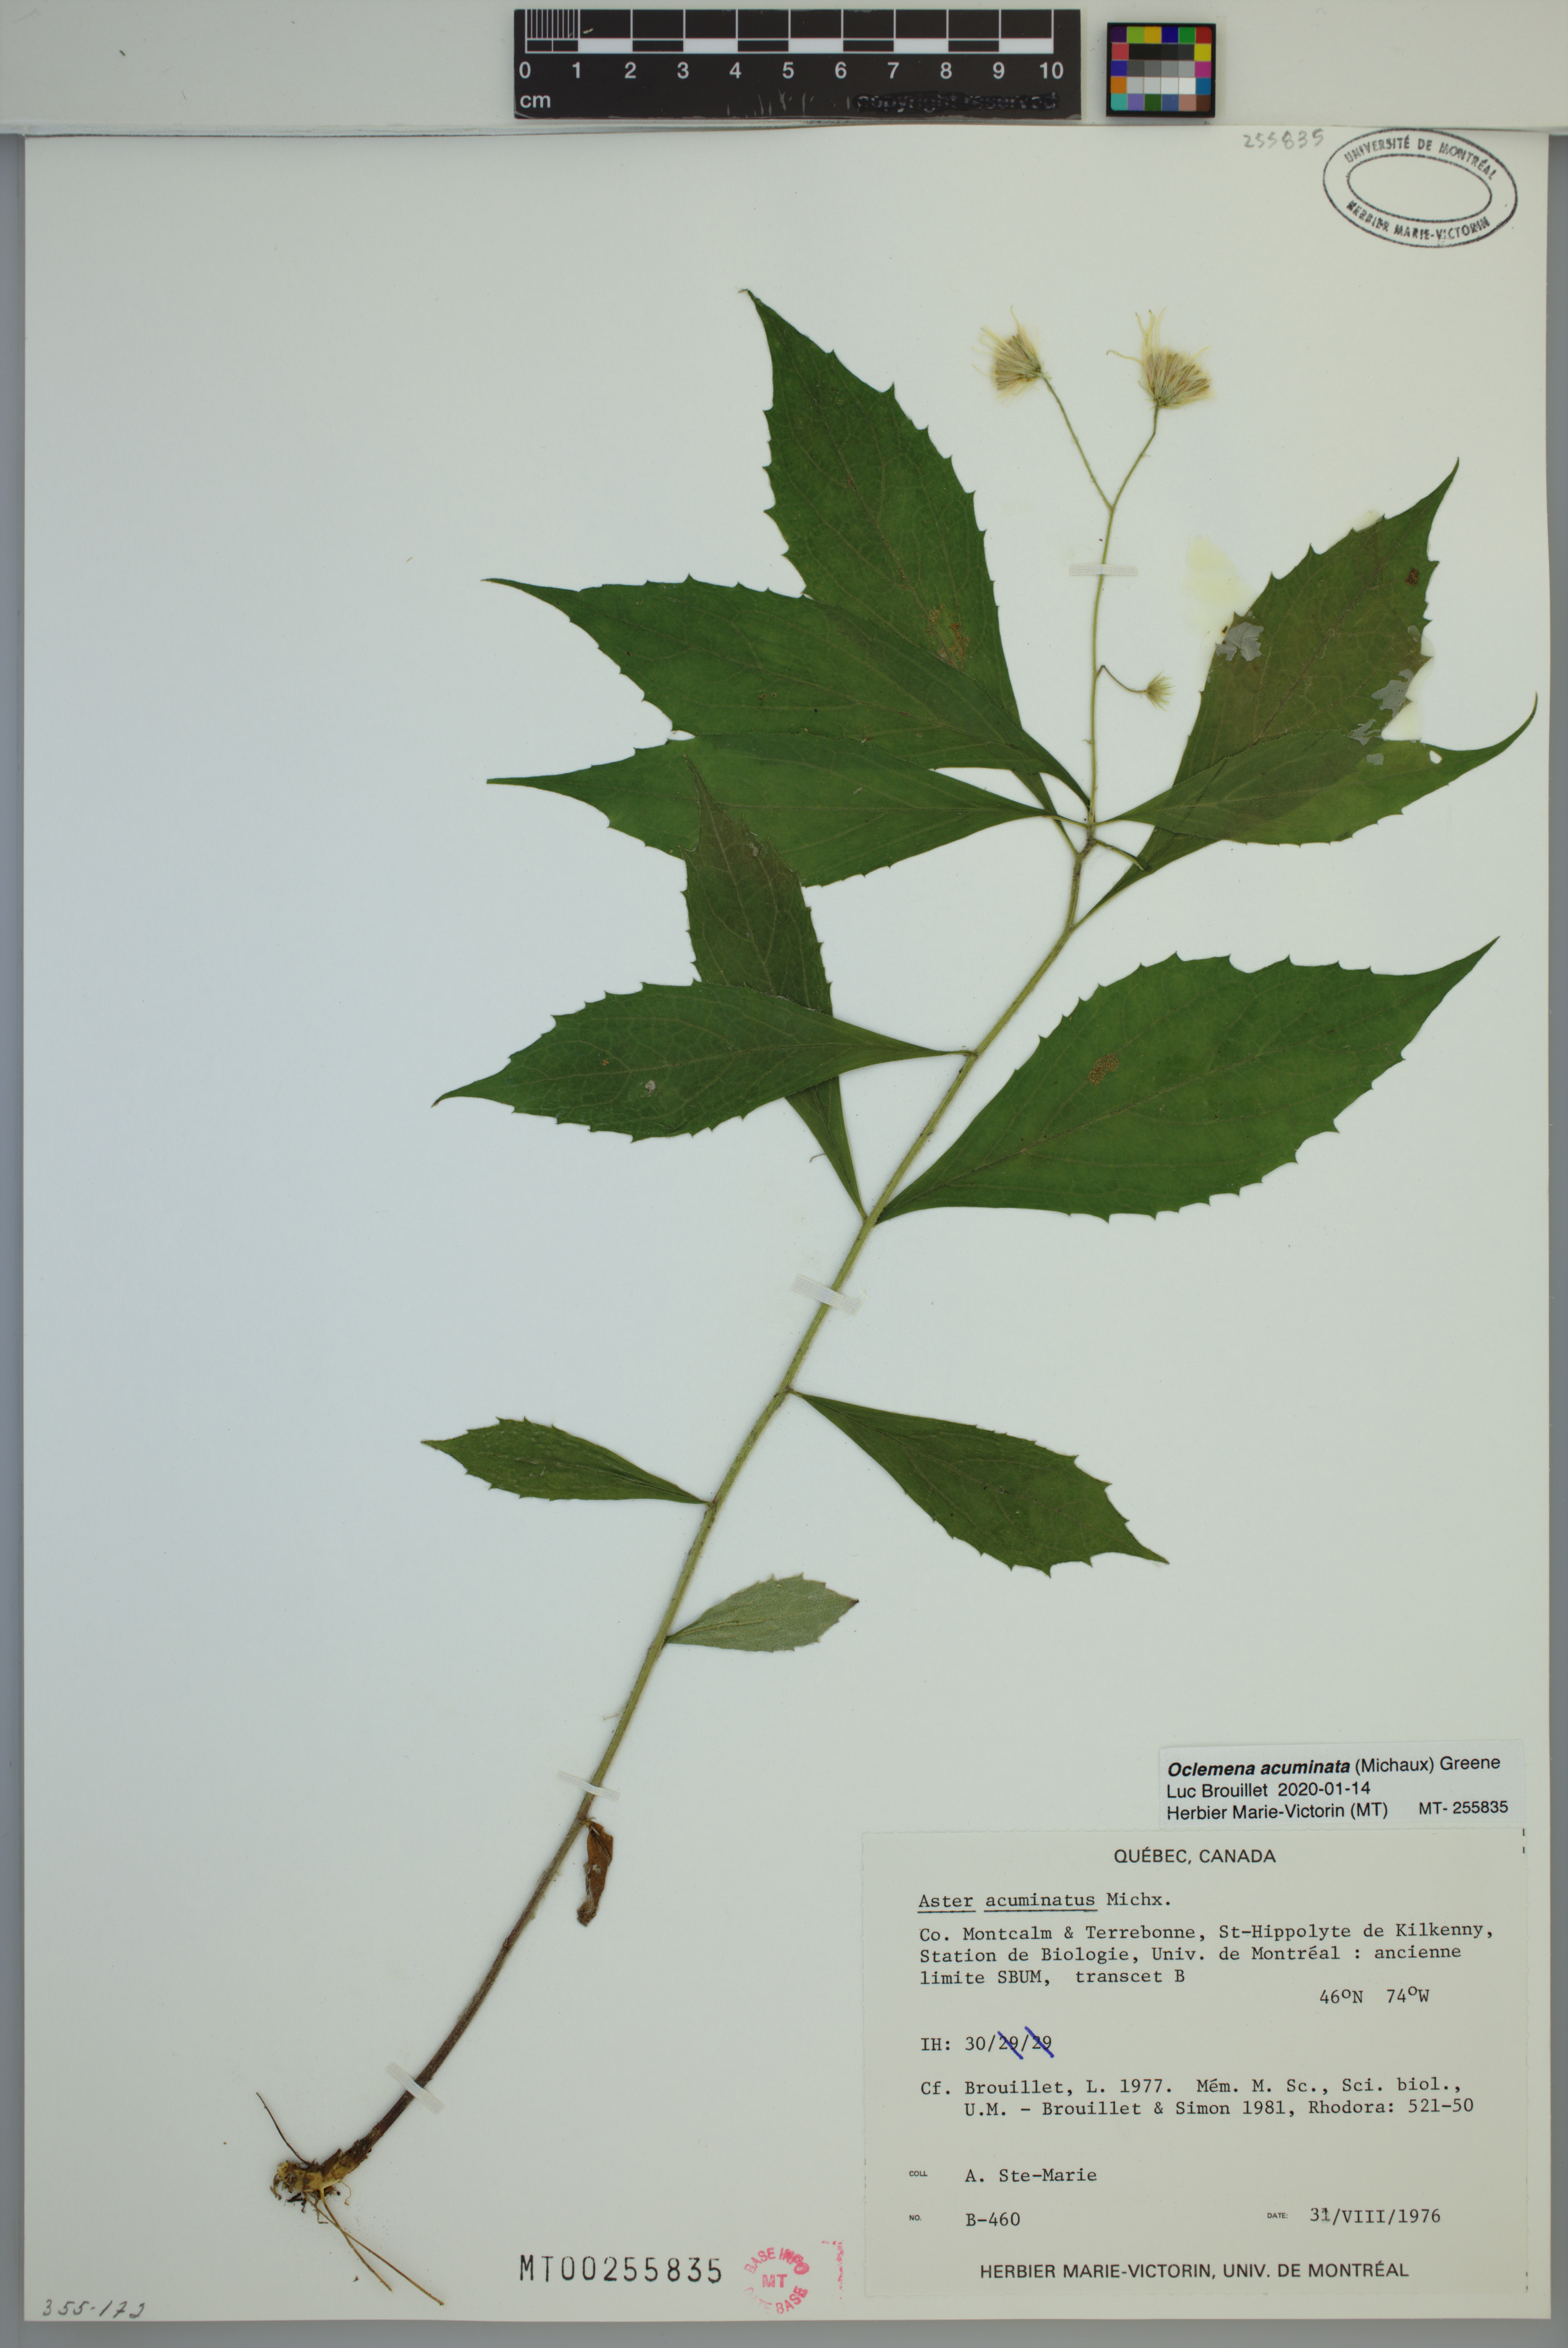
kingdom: Plantae
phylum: Tracheophyta
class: Magnoliopsida
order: Asterales
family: Asteraceae
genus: Oclemena
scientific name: Oclemena acuminata
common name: Mountain aster
